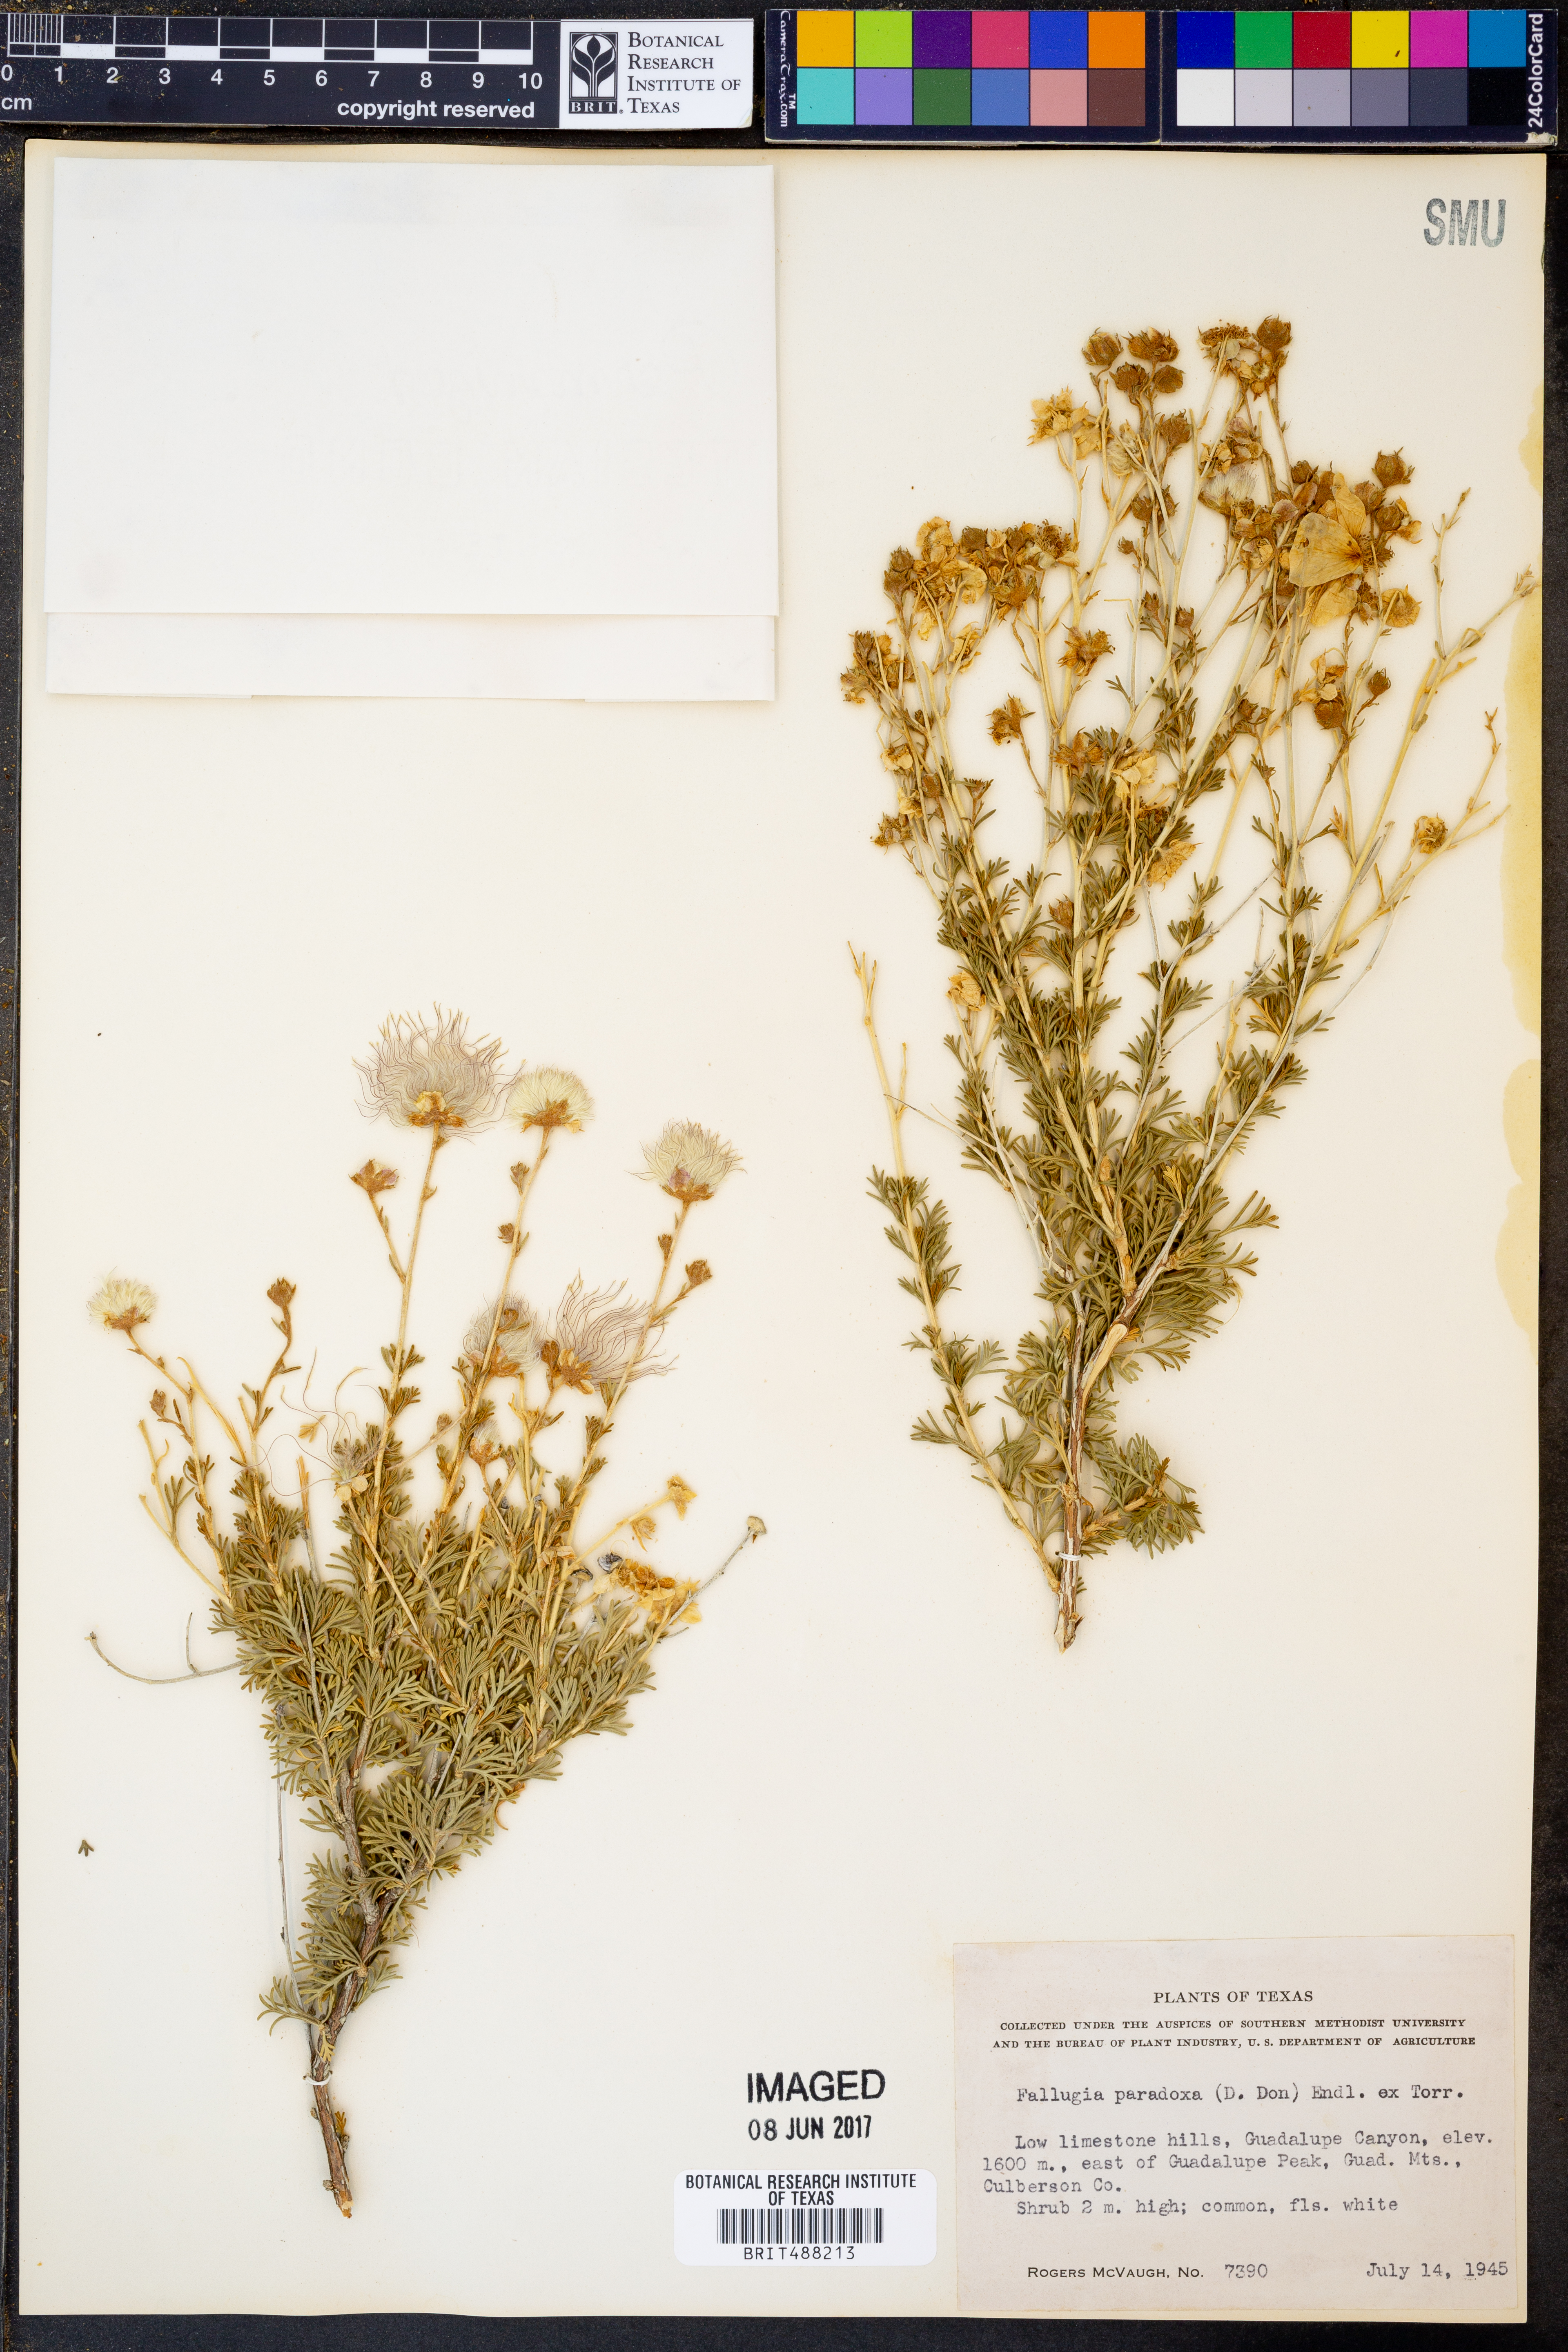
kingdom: Plantae
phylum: Tracheophyta
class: Magnoliopsida
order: Rosales
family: Rosaceae
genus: Fallugia
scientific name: Fallugia paradoxa
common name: Apache-plume
